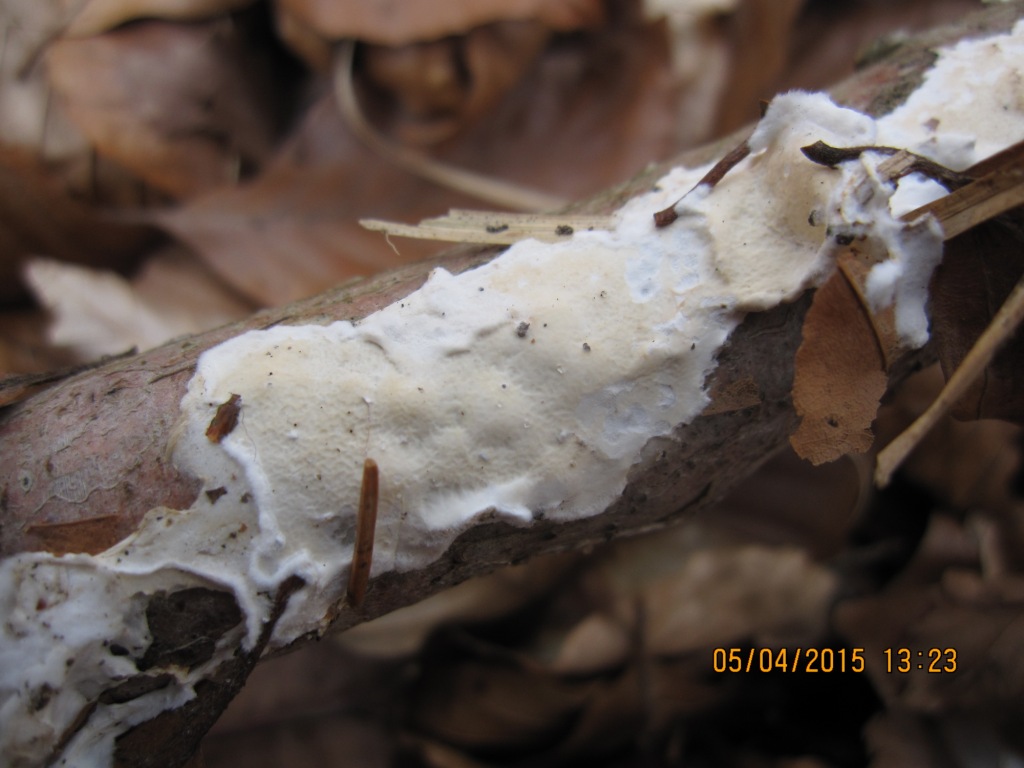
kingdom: Fungi
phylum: Basidiomycota
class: Agaricomycetes
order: Polyporales
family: Irpicaceae
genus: Byssomerulius
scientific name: Byssomerulius corium
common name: læder-åresvamp
